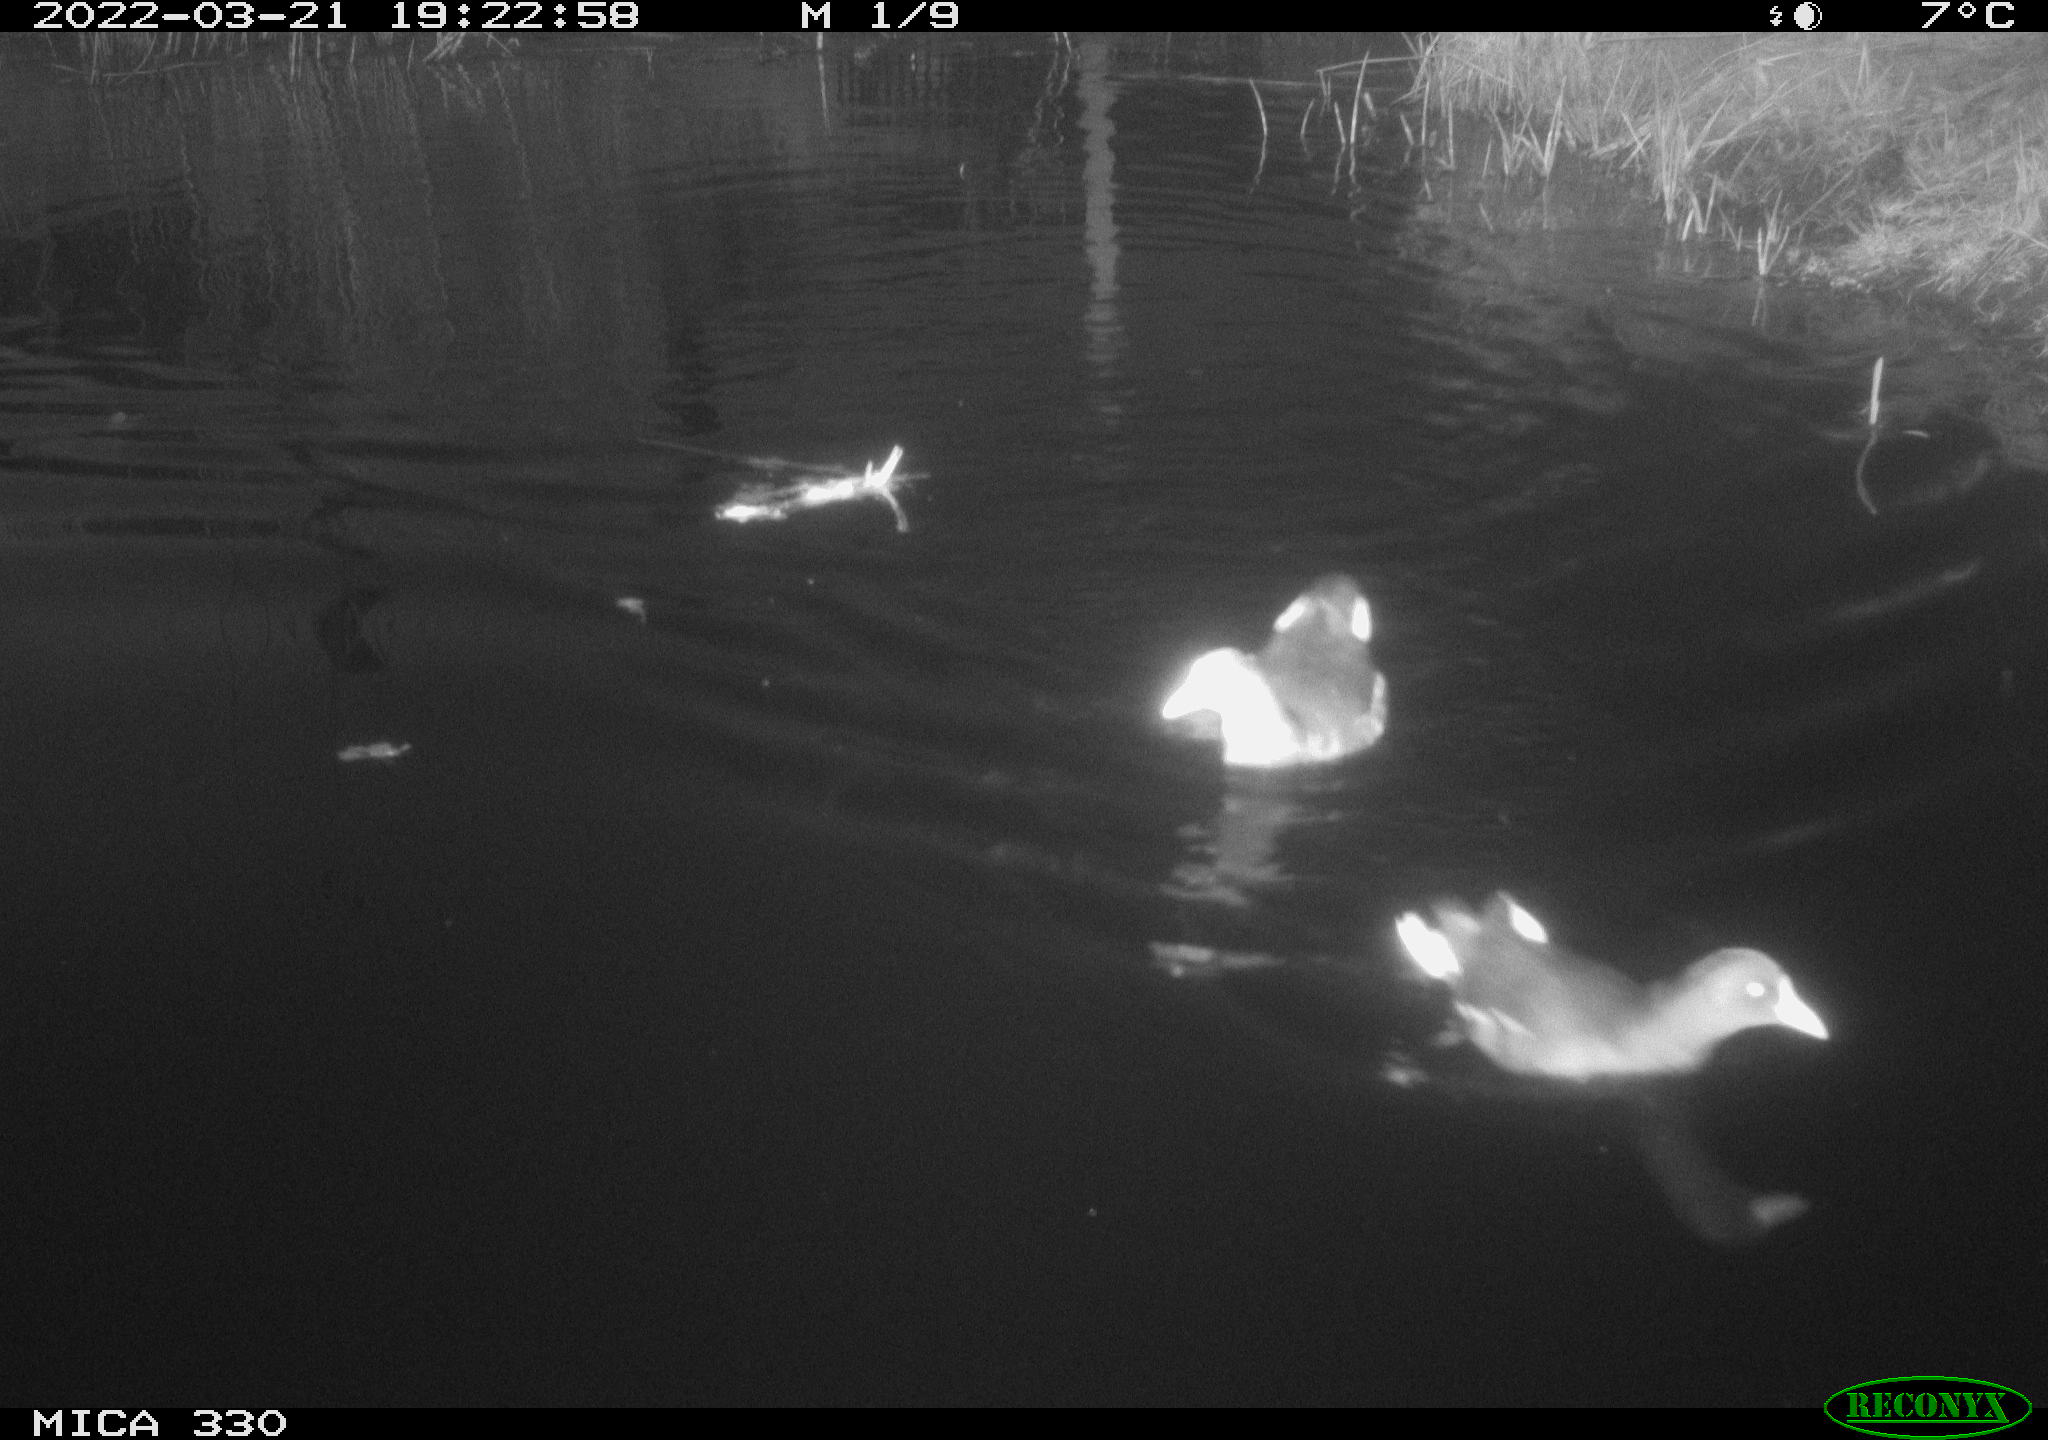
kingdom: Animalia
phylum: Chordata
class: Aves
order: Gruiformes
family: Rallidae
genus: Gallinula
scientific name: Gallinula chloropus
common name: Common moorhen
